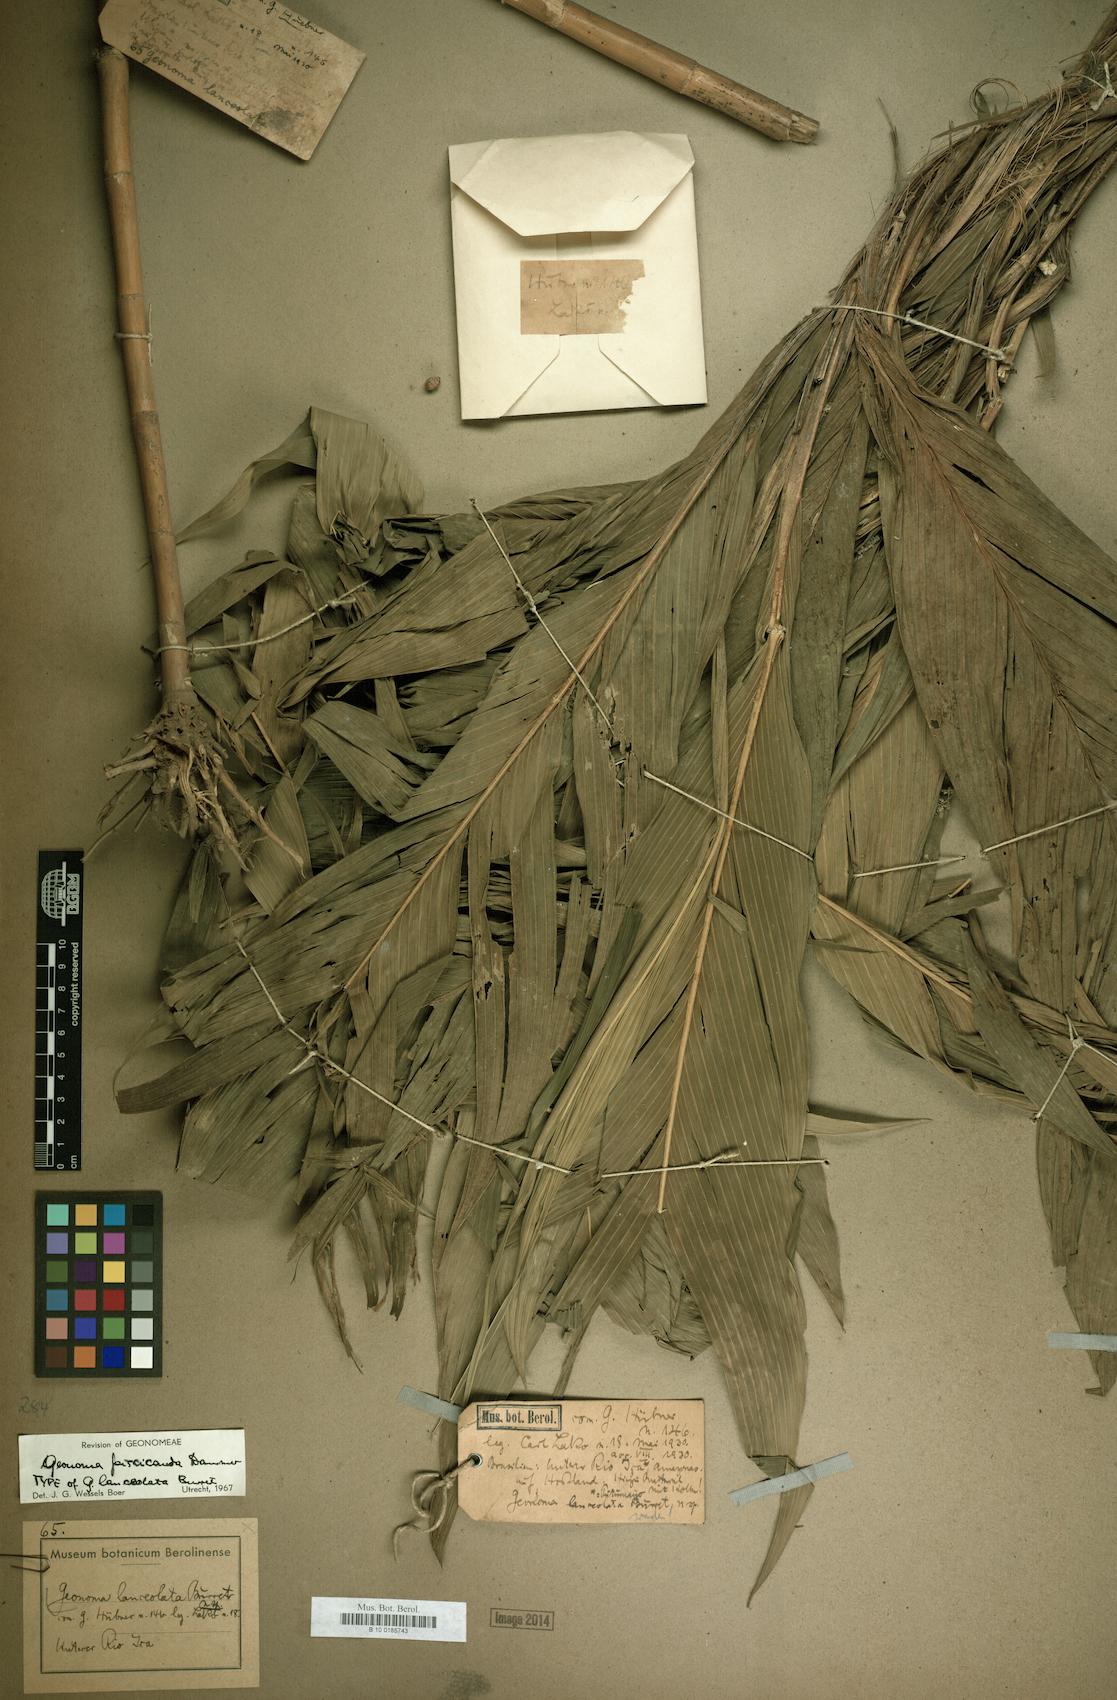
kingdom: Plantae
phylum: Tracheophyta
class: Liliopsida
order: Arecales
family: Arecaceae
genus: Geonoma
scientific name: Geonoma stricta
